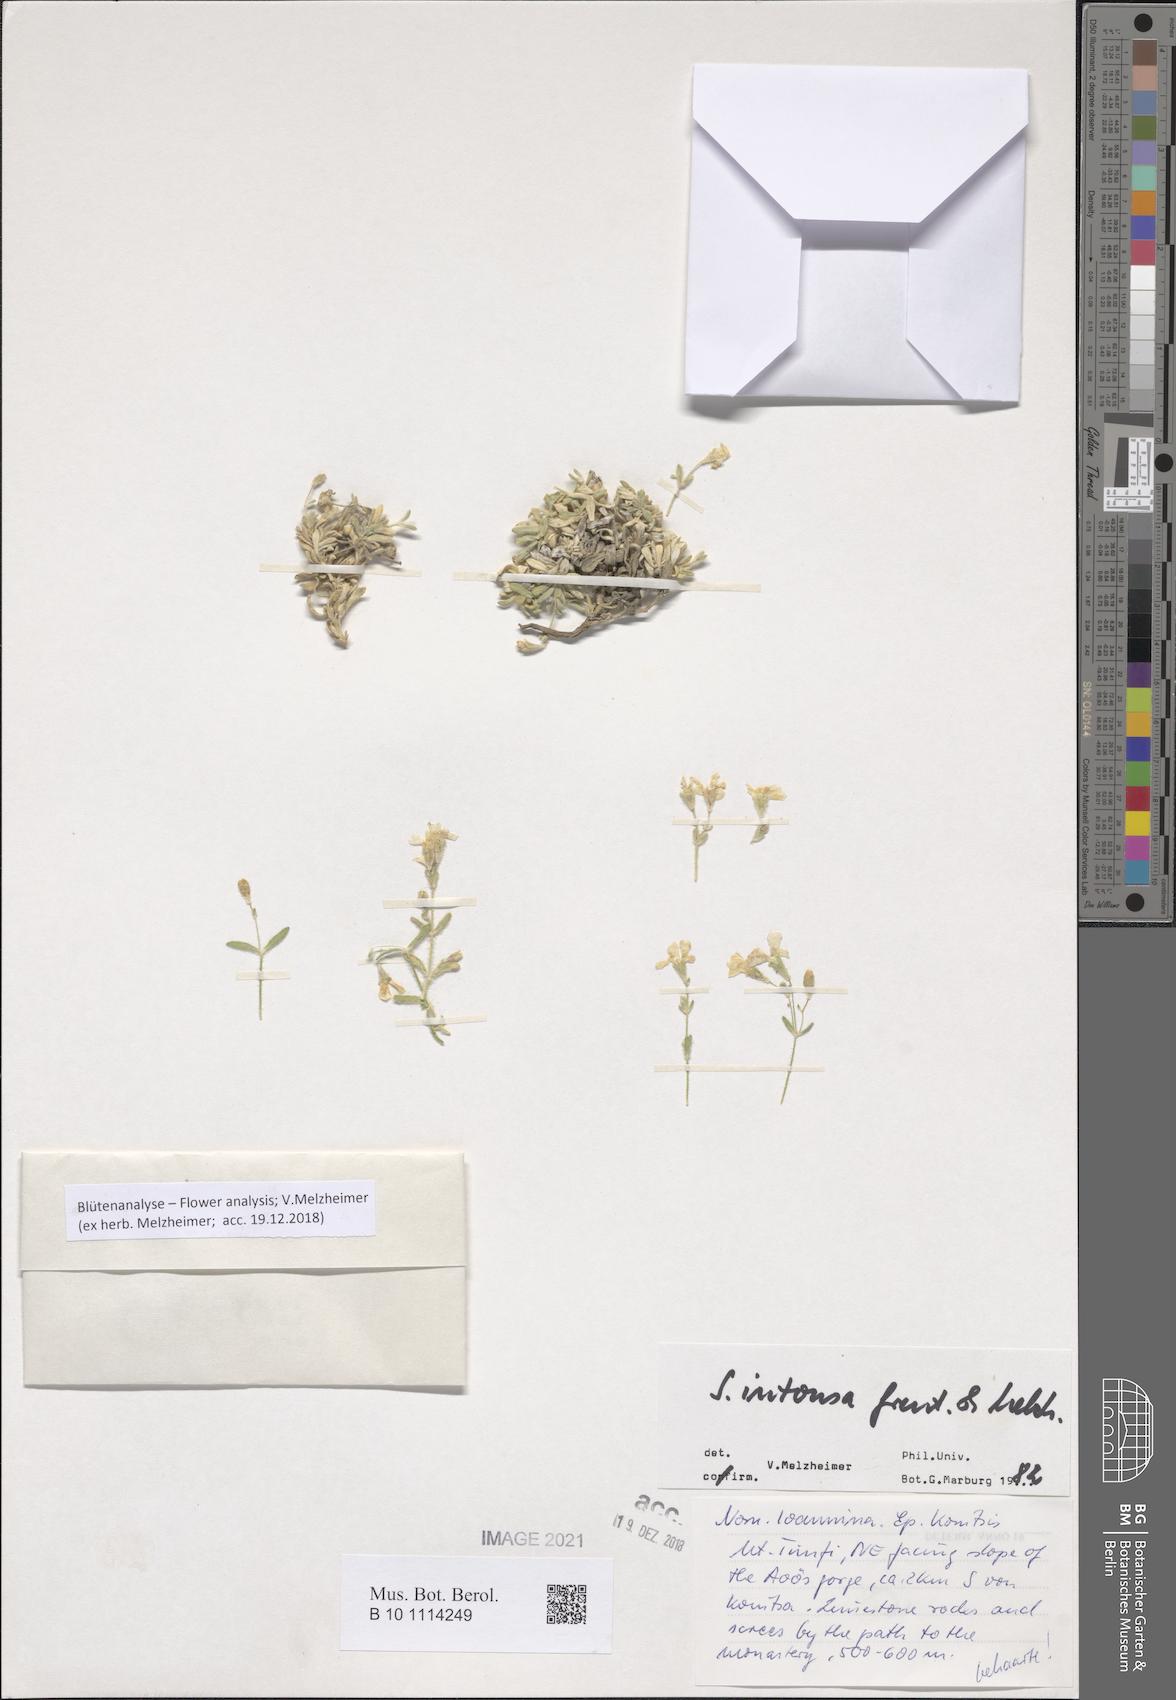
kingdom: Plantae
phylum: Tracheophyta
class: Magnoliopsida
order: Caryophyllales
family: Caryophyllaceae
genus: Heliosperma
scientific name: Heliosperma intonsum
